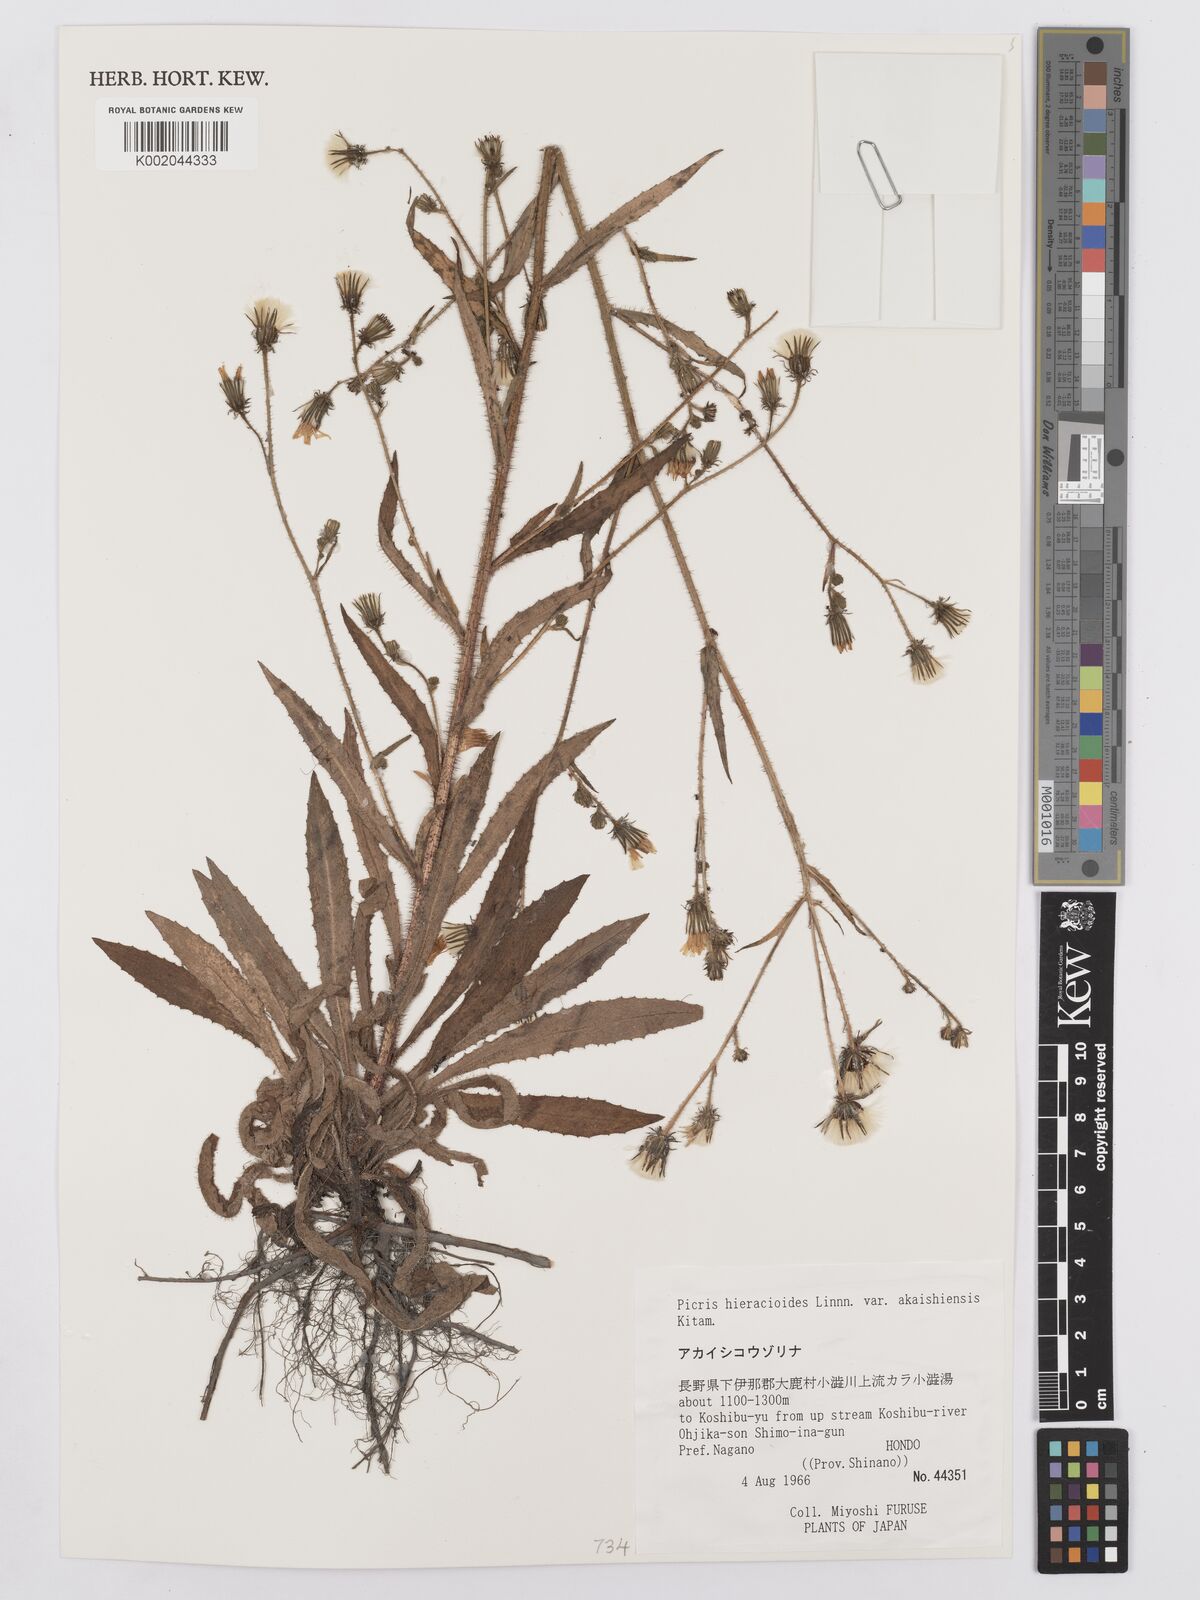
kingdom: Plantae
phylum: Tracheophyta
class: Magnoliopsida
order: Asterales
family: Asteraceae
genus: Picris
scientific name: Picris hieracioides
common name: Hawkweed oxtongue
